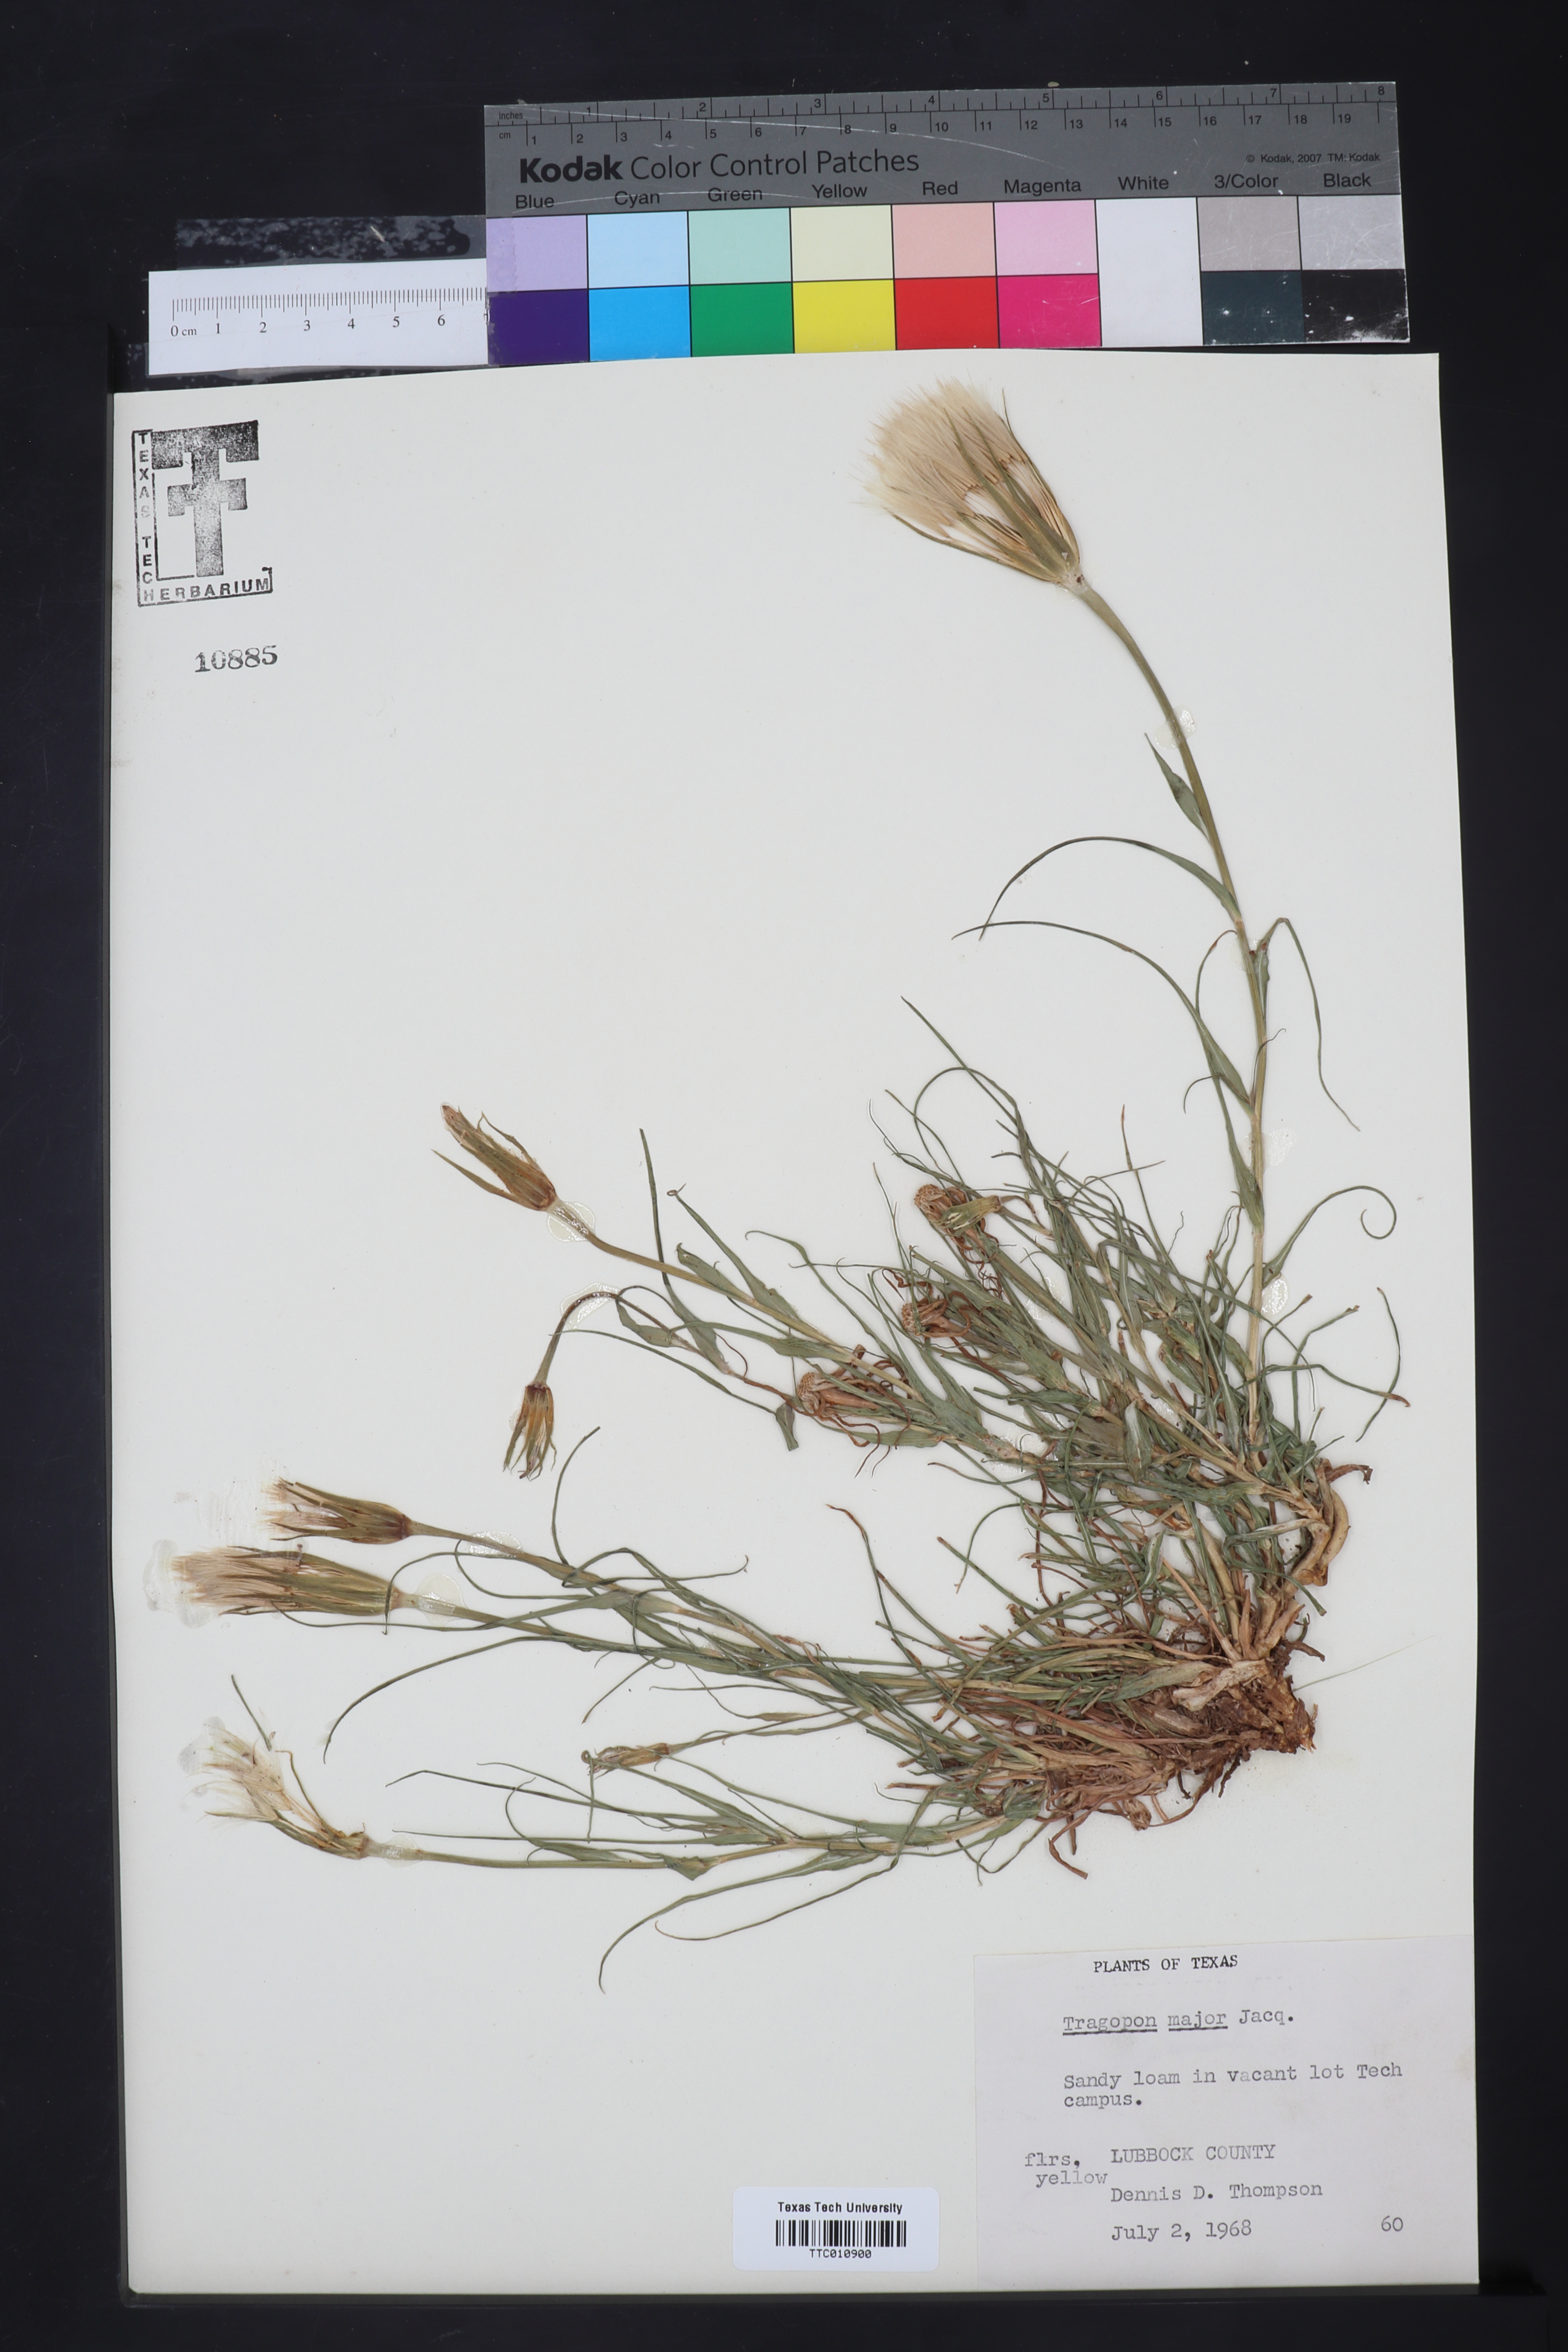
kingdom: Plantae
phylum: Tracheophyta
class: Magnoliopsida
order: Asterales
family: Asteraceae
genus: Tragopogon
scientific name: Tragopogon dubius
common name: Yellow salsify
